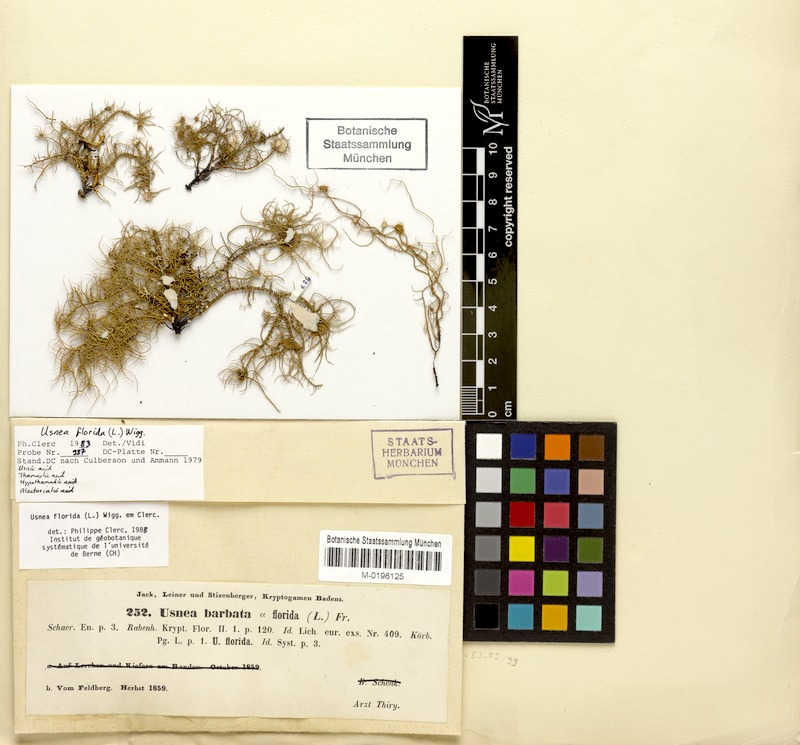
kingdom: Fungi
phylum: Ascomycota
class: Lecanoromycetes
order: Lecanorales
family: Parmeliaceae
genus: Usnea
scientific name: Usnea florida
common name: Witches' whiskers lichen
